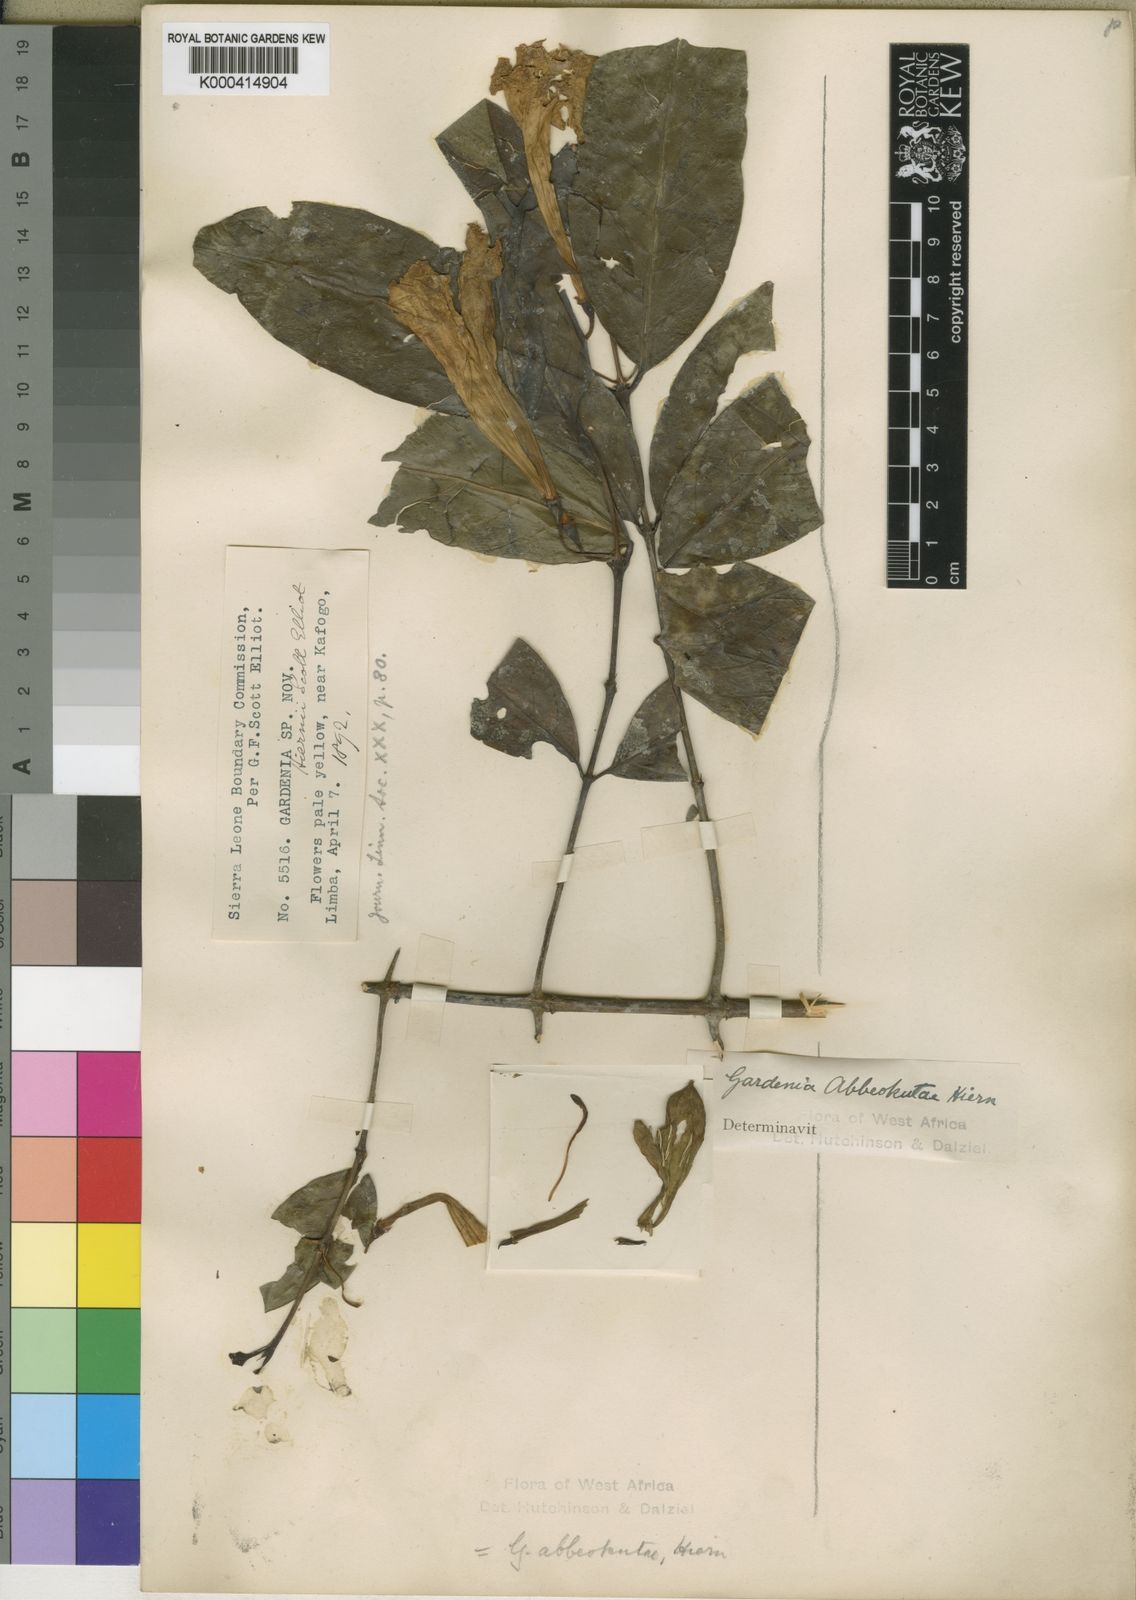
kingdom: Plantae
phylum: Tracheophyta
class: Magnoliopsida
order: Gentianales
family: Rubiaceae
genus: Didymosalpinx
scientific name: Didymosalpinx abbeokutae
